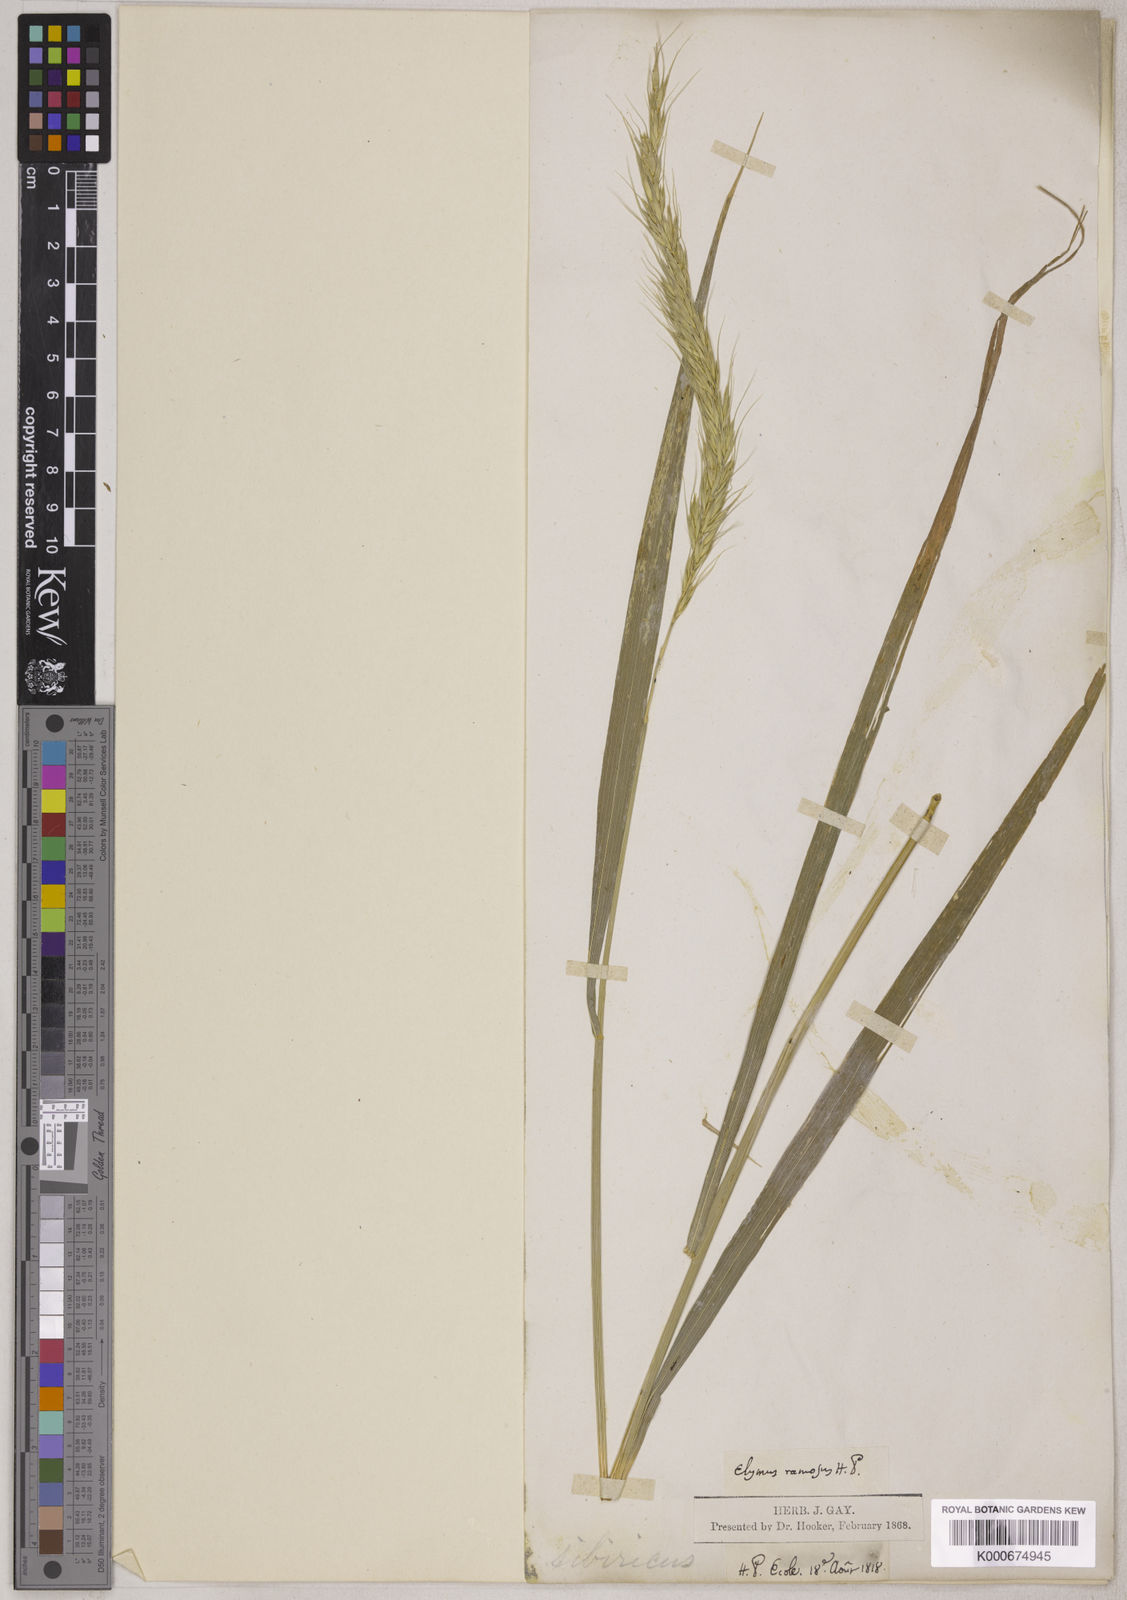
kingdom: Plantae
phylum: Tracheophyta
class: Liliopsida
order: Poales
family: Poaceae
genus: Elymus
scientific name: Elymus sibiricus
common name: Siberian wildrye
